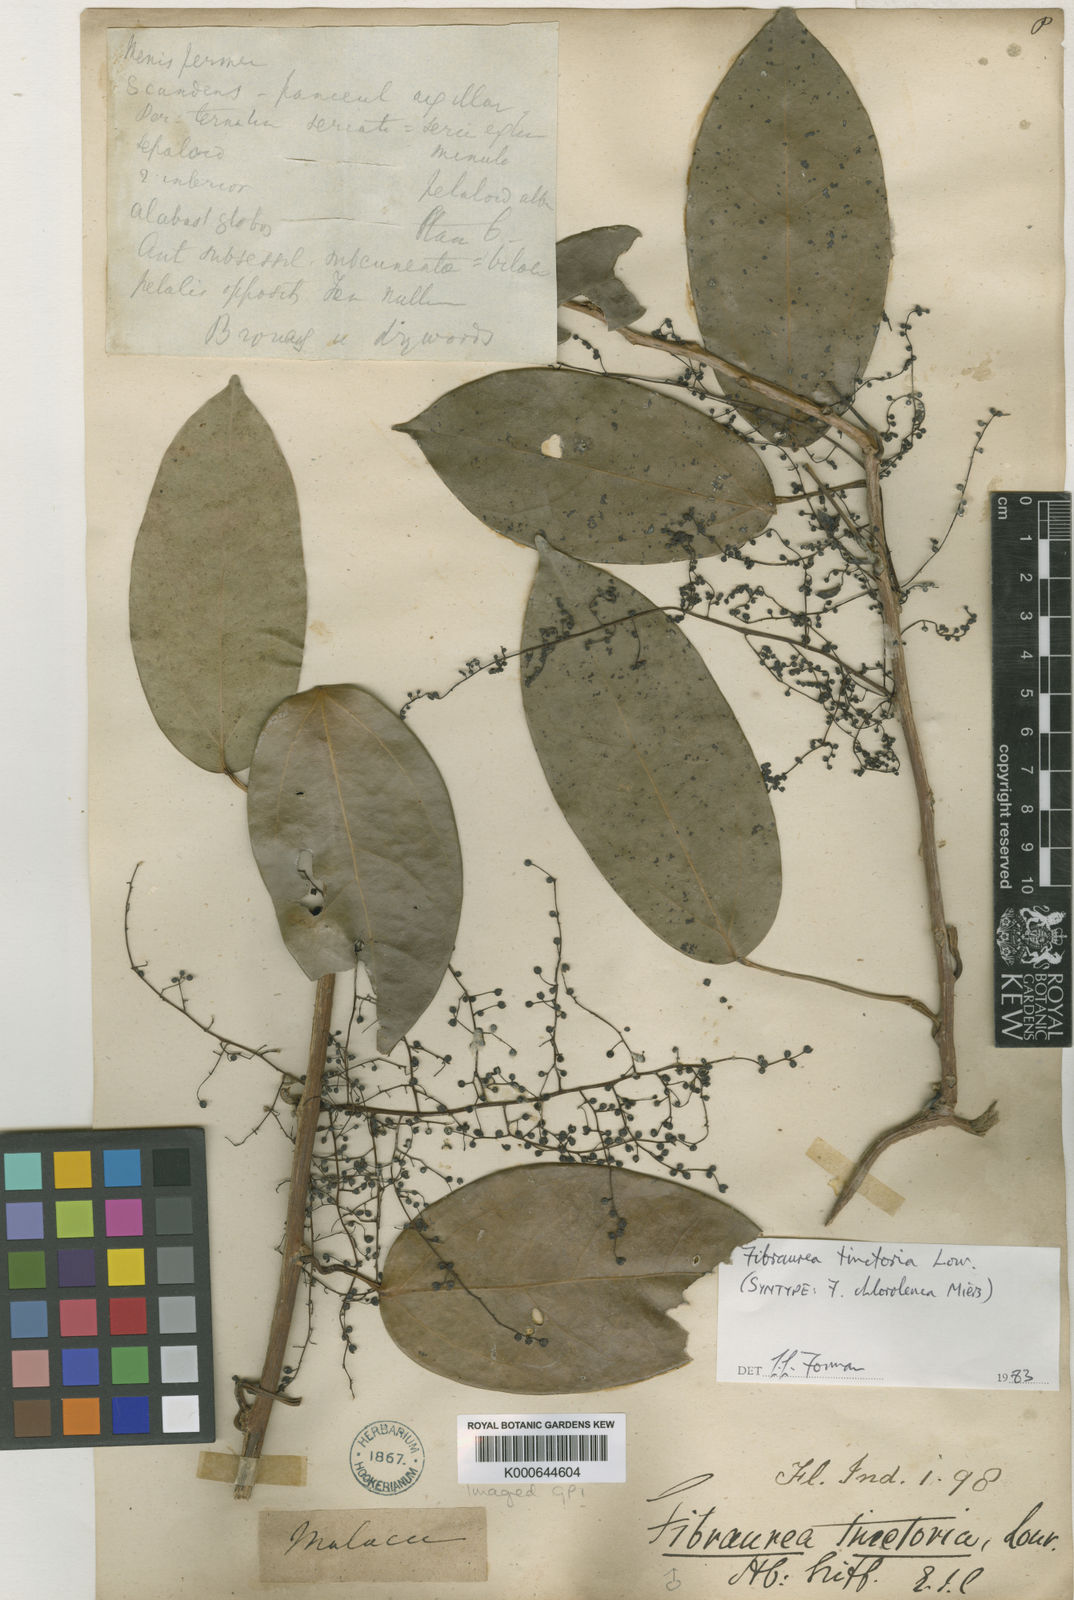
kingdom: Plantae
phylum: Tracheophyta
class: Magnoliopsida
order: Ranunculales
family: Menispermaceae
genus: Fibraurea
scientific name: Fibraurea tinctoria
